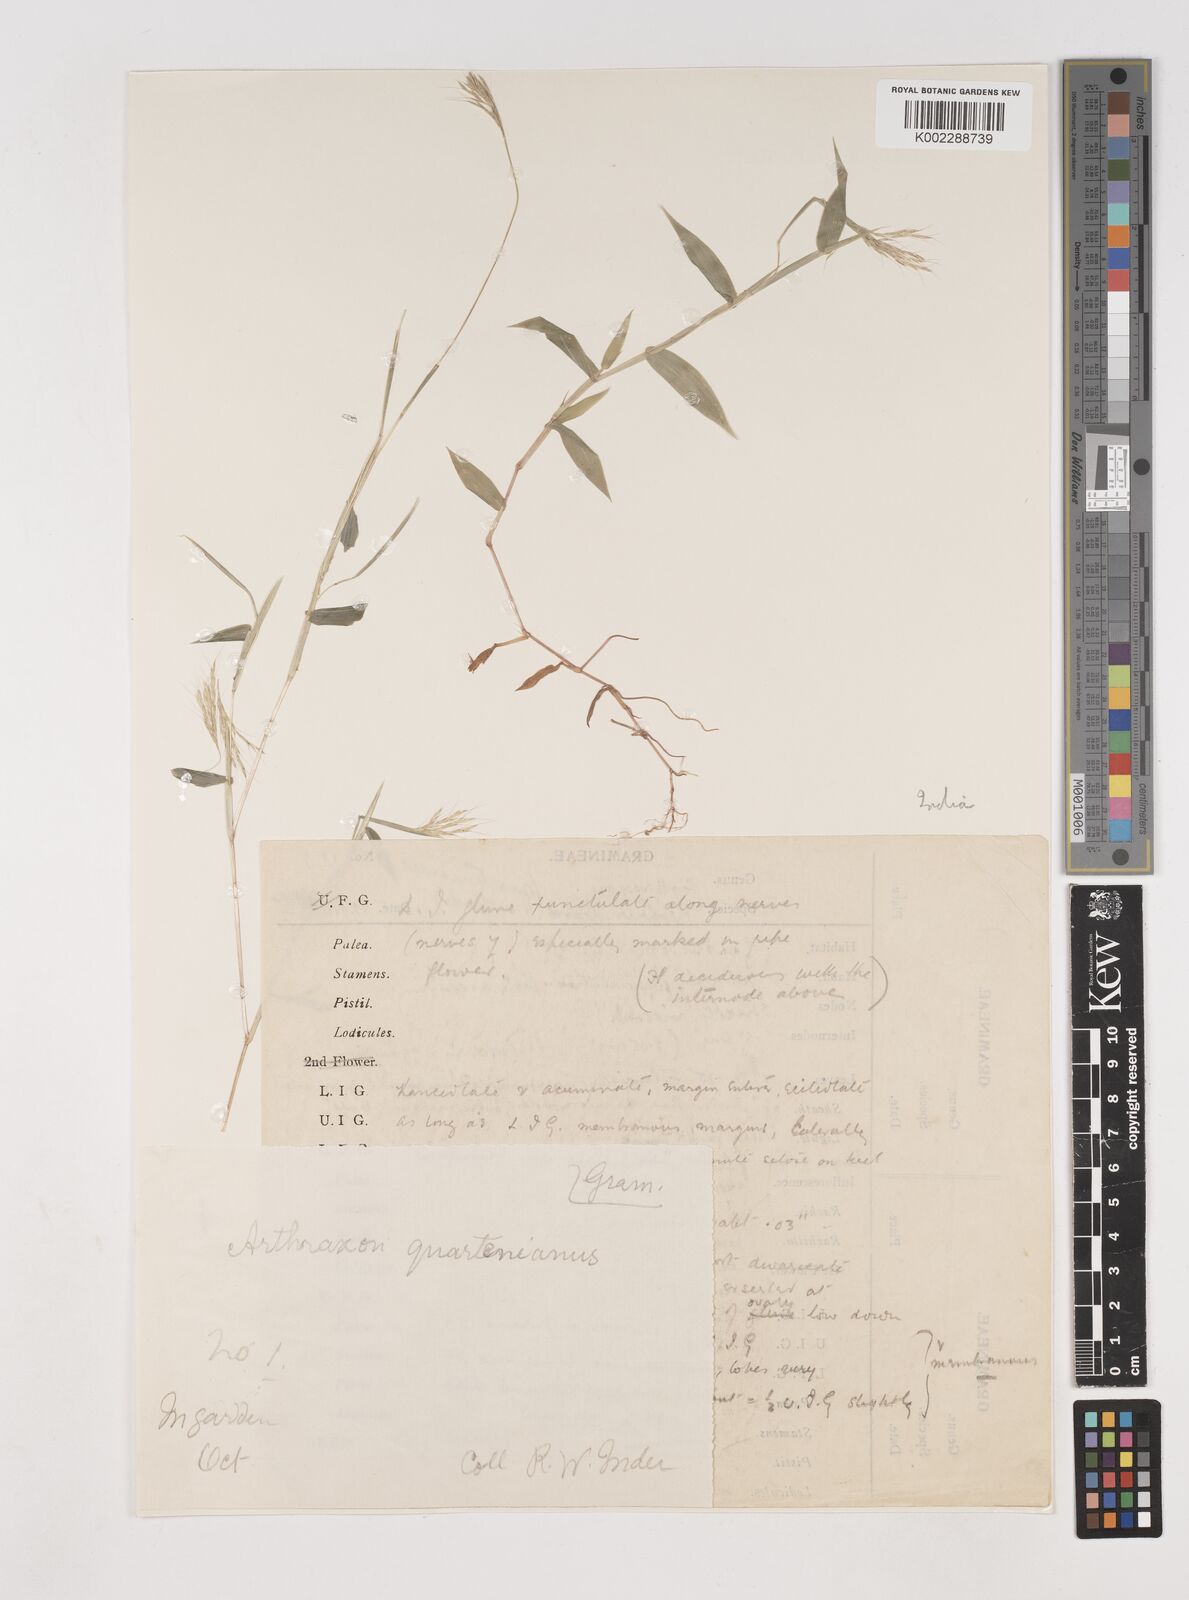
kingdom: Plantae
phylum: Tracheophyta
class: Liliopsida
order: Poales
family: Poaceae
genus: Arthraxon
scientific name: Arthraxon hispidus
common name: Small carpgrass
